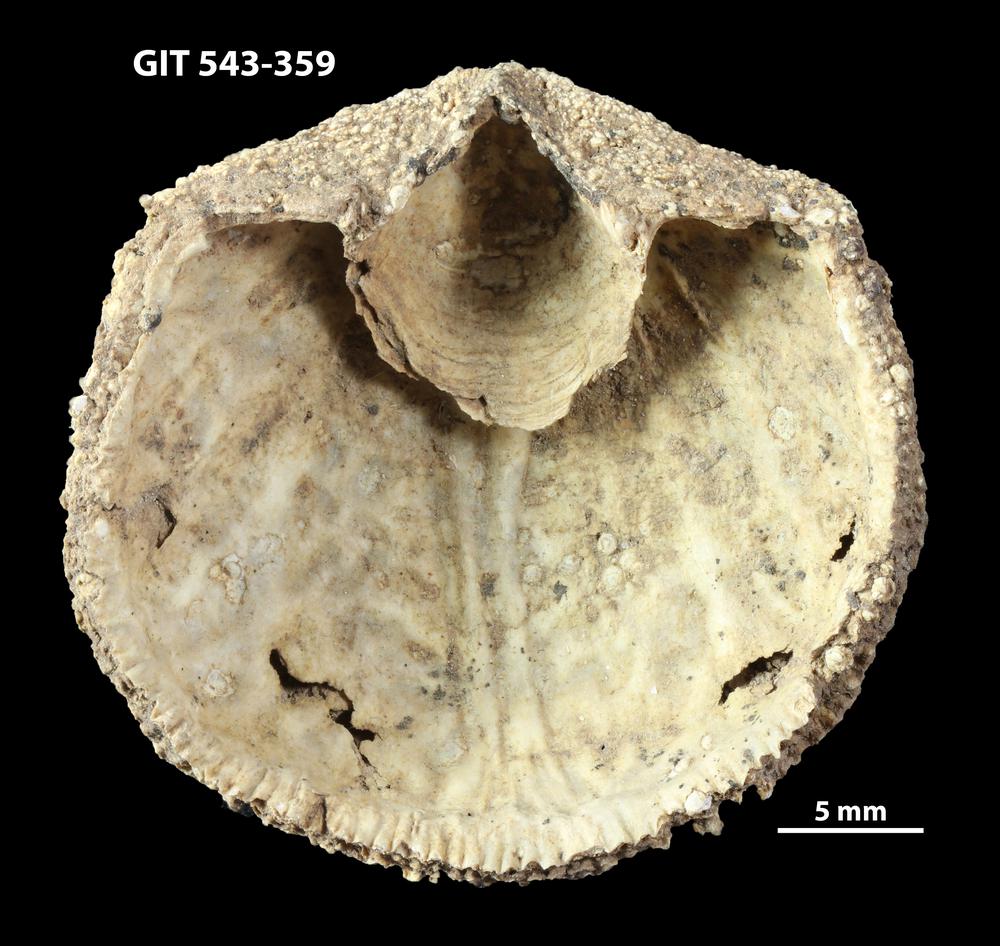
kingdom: Animalia
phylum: Brachiopoda
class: Rhynchonellata
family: Clitambonitidae
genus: Clitambonites
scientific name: Clitambonites Orthisina schmidti
